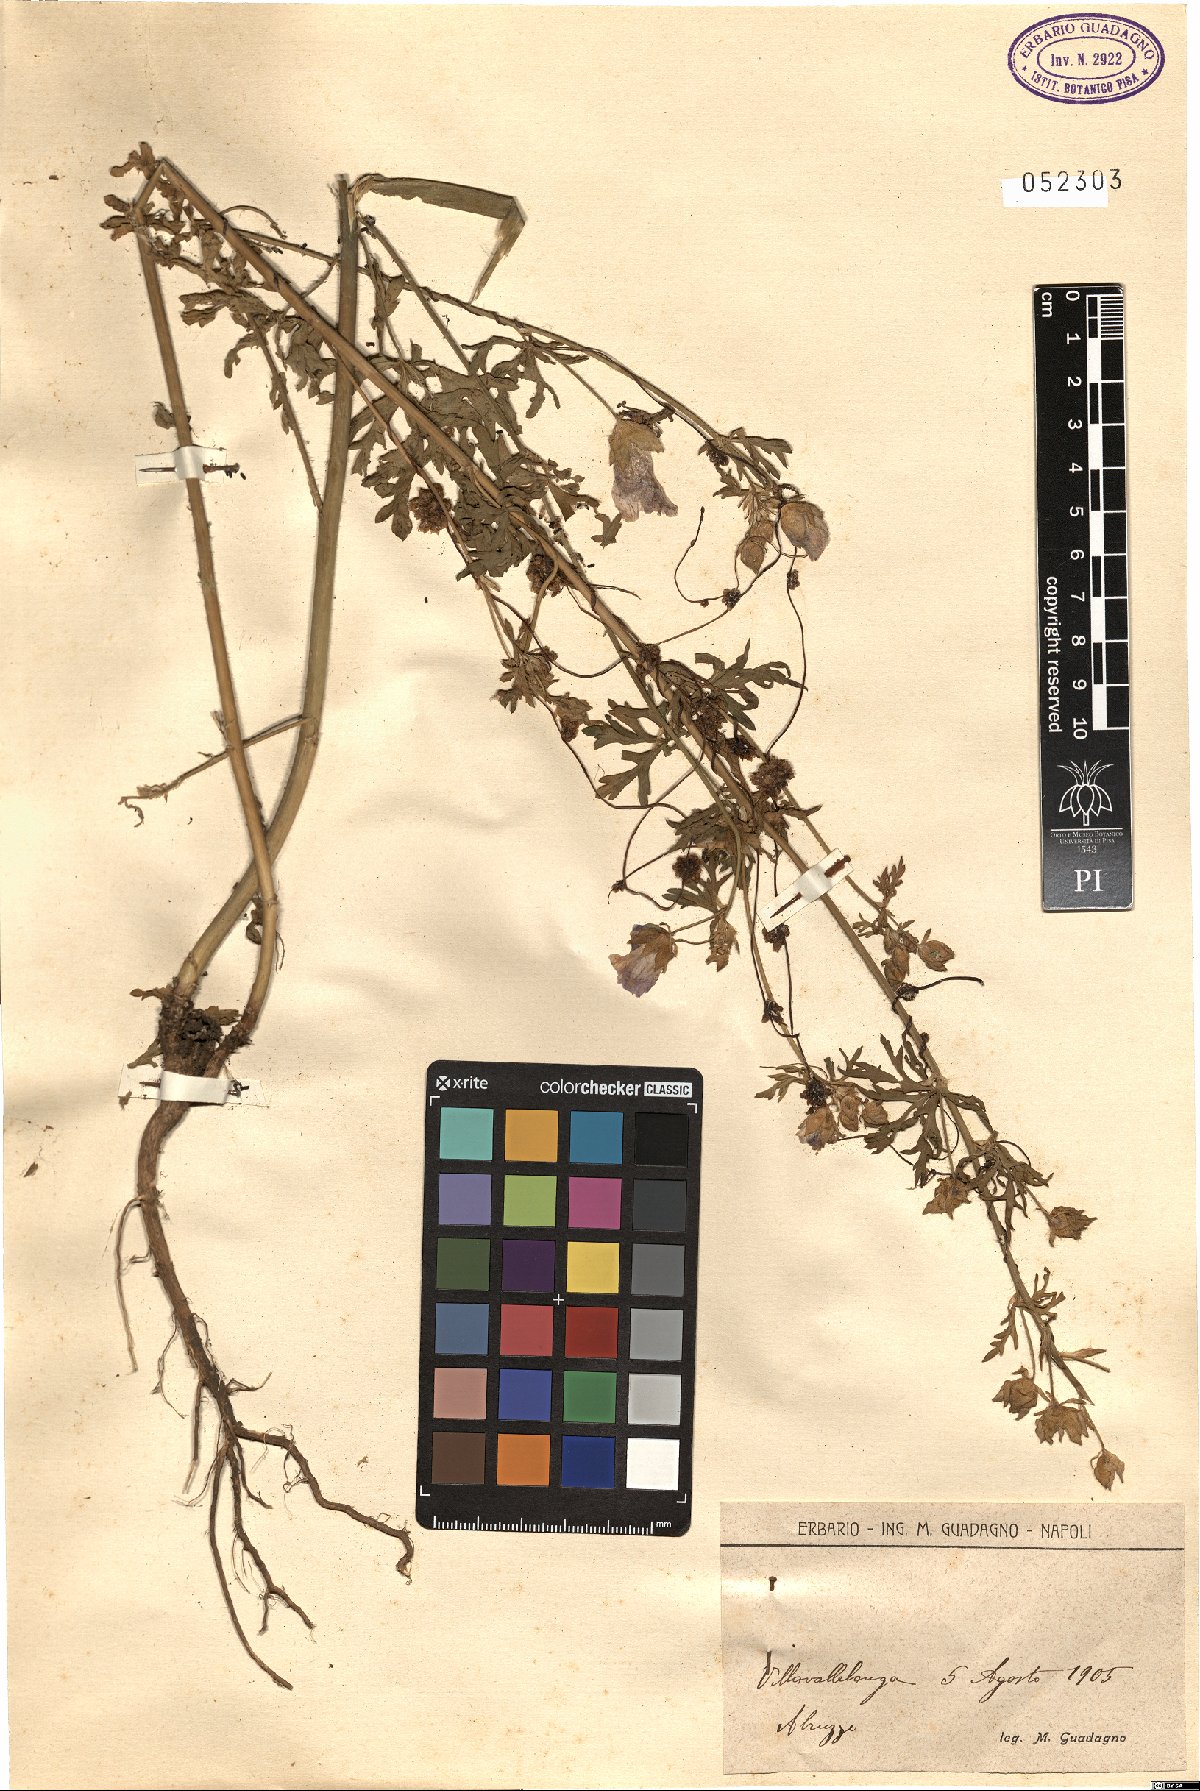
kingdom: Plantae
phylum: Tracheophyta
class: Magnoliopsida
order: Malvales
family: Malvaceae
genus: Malva
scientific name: Malva
